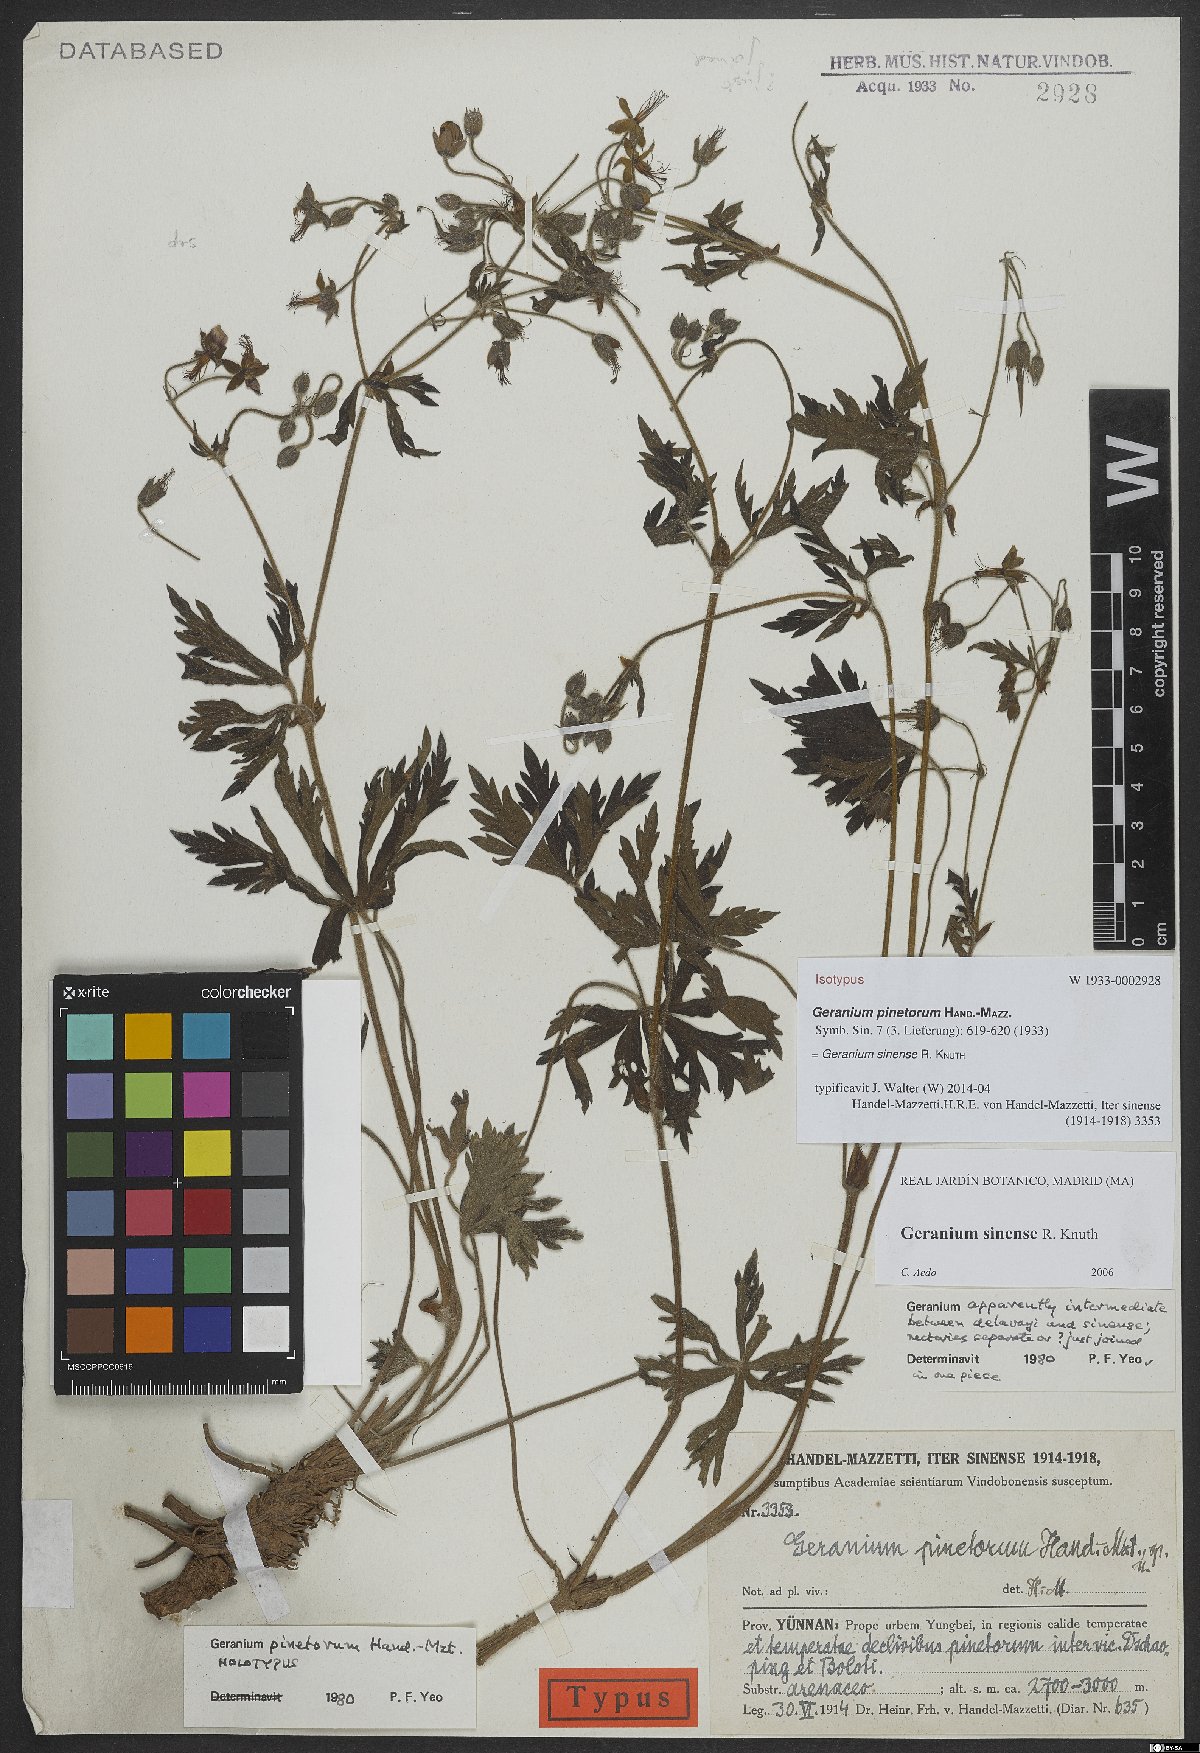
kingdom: Plantae
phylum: Tracheophyta
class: Magnoliopsida
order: Geraniales
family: Geraniaceae
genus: Geranium
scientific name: Geranium sinense
